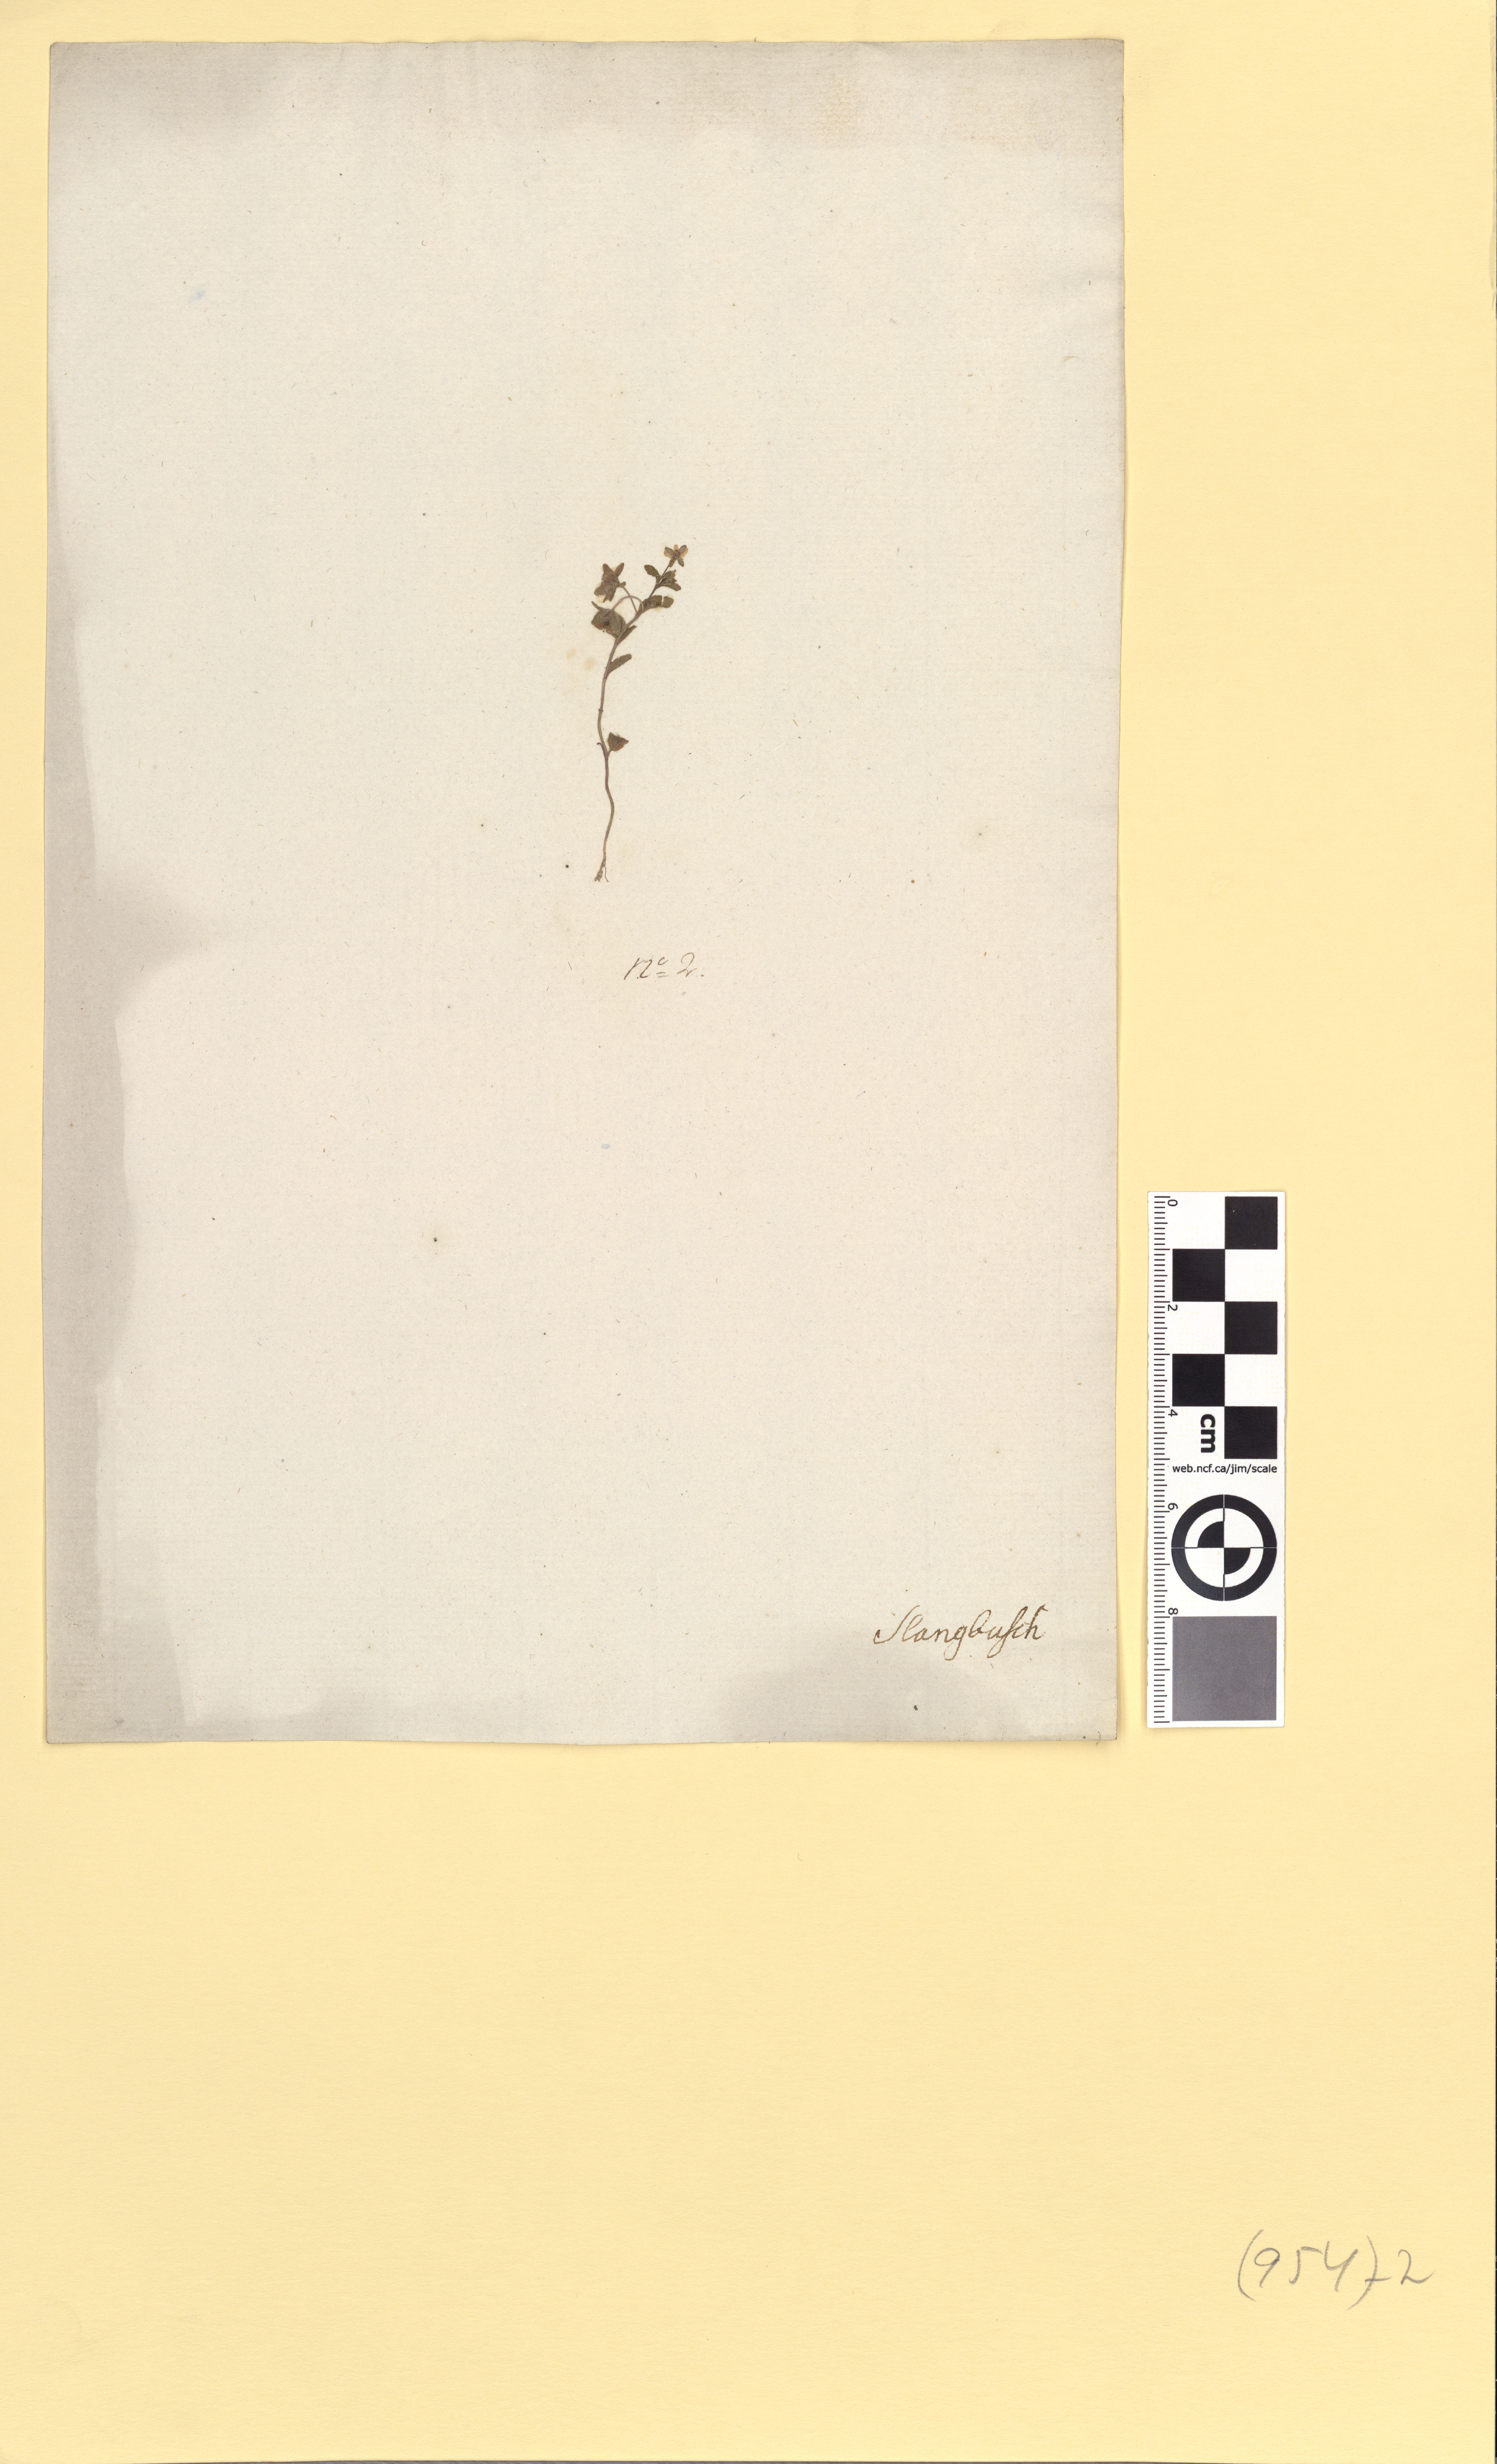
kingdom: Plantae
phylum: Tracheophyta
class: Magnoliopsida
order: Lamiales
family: Plantaginaceae
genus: Veronica
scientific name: Veronica agrestis
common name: Green field-speedwell
